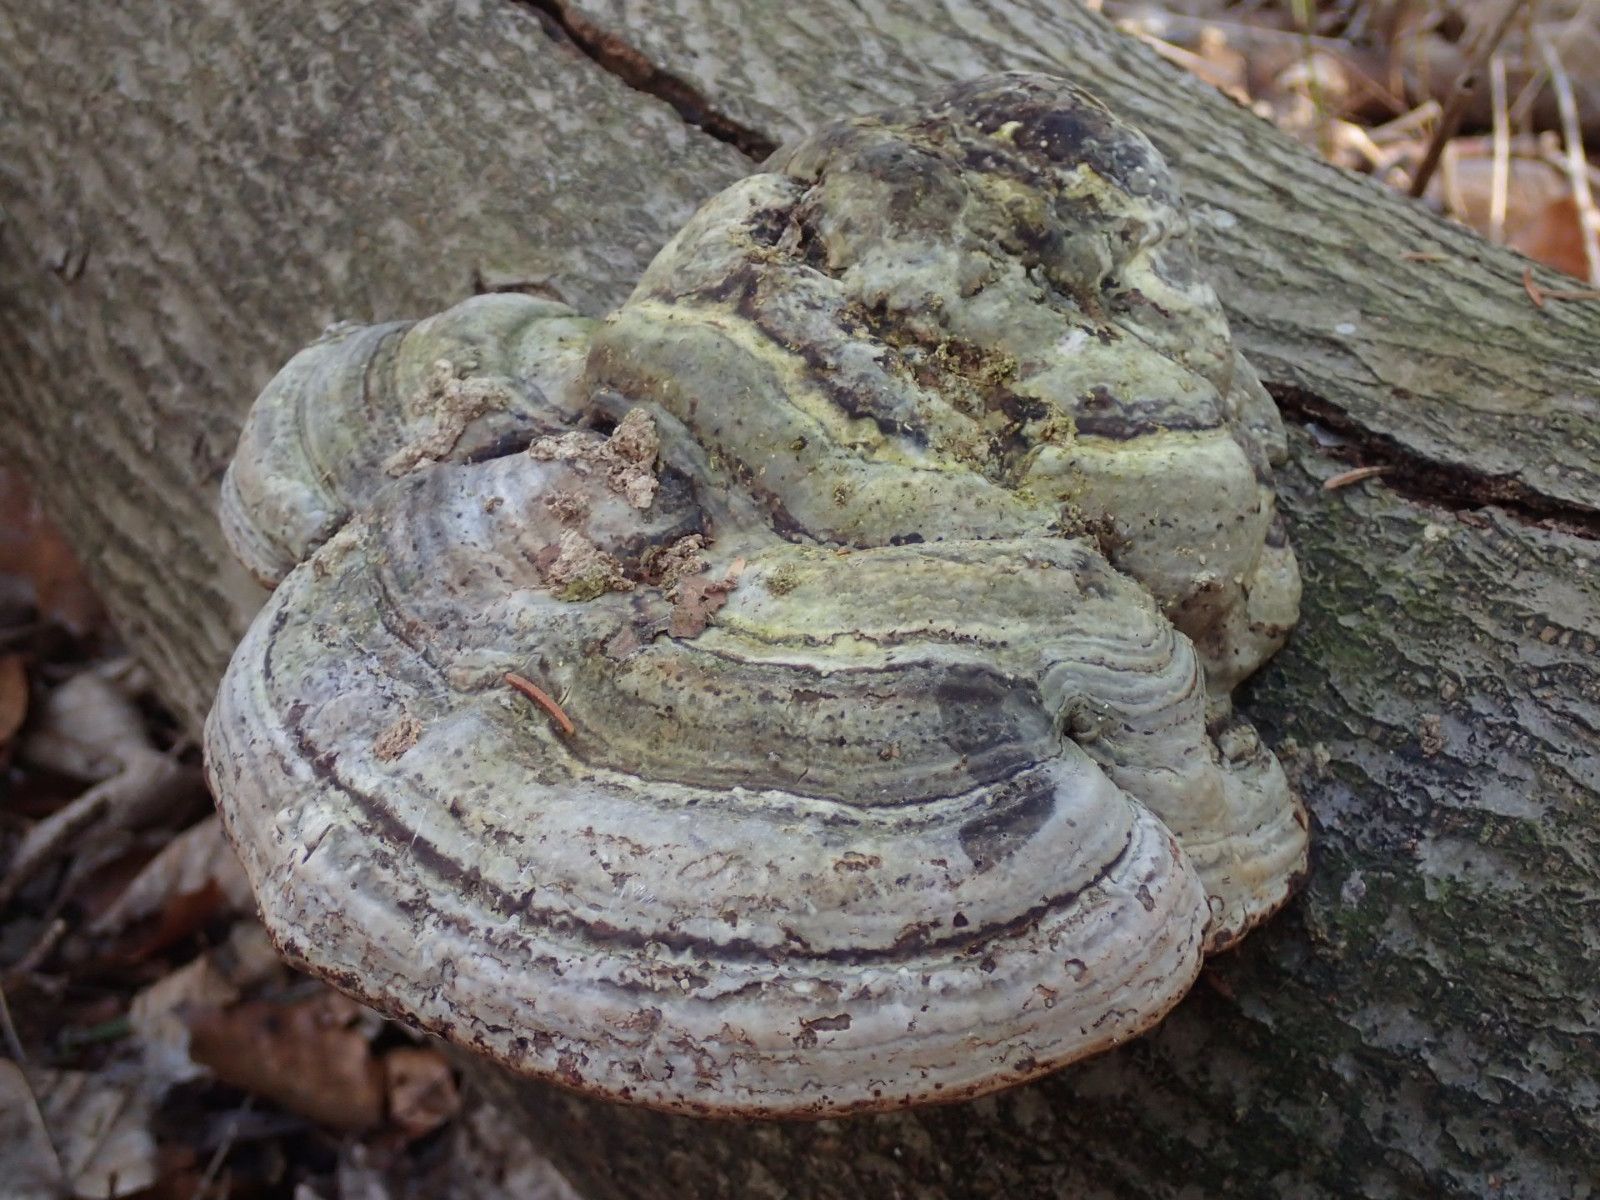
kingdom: Fungi
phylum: Basidiomycota
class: Agaricomycetes
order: Polyporales
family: Polyporaceae
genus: Fomes
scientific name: Fomes fomentarius
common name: tøndersvamp
